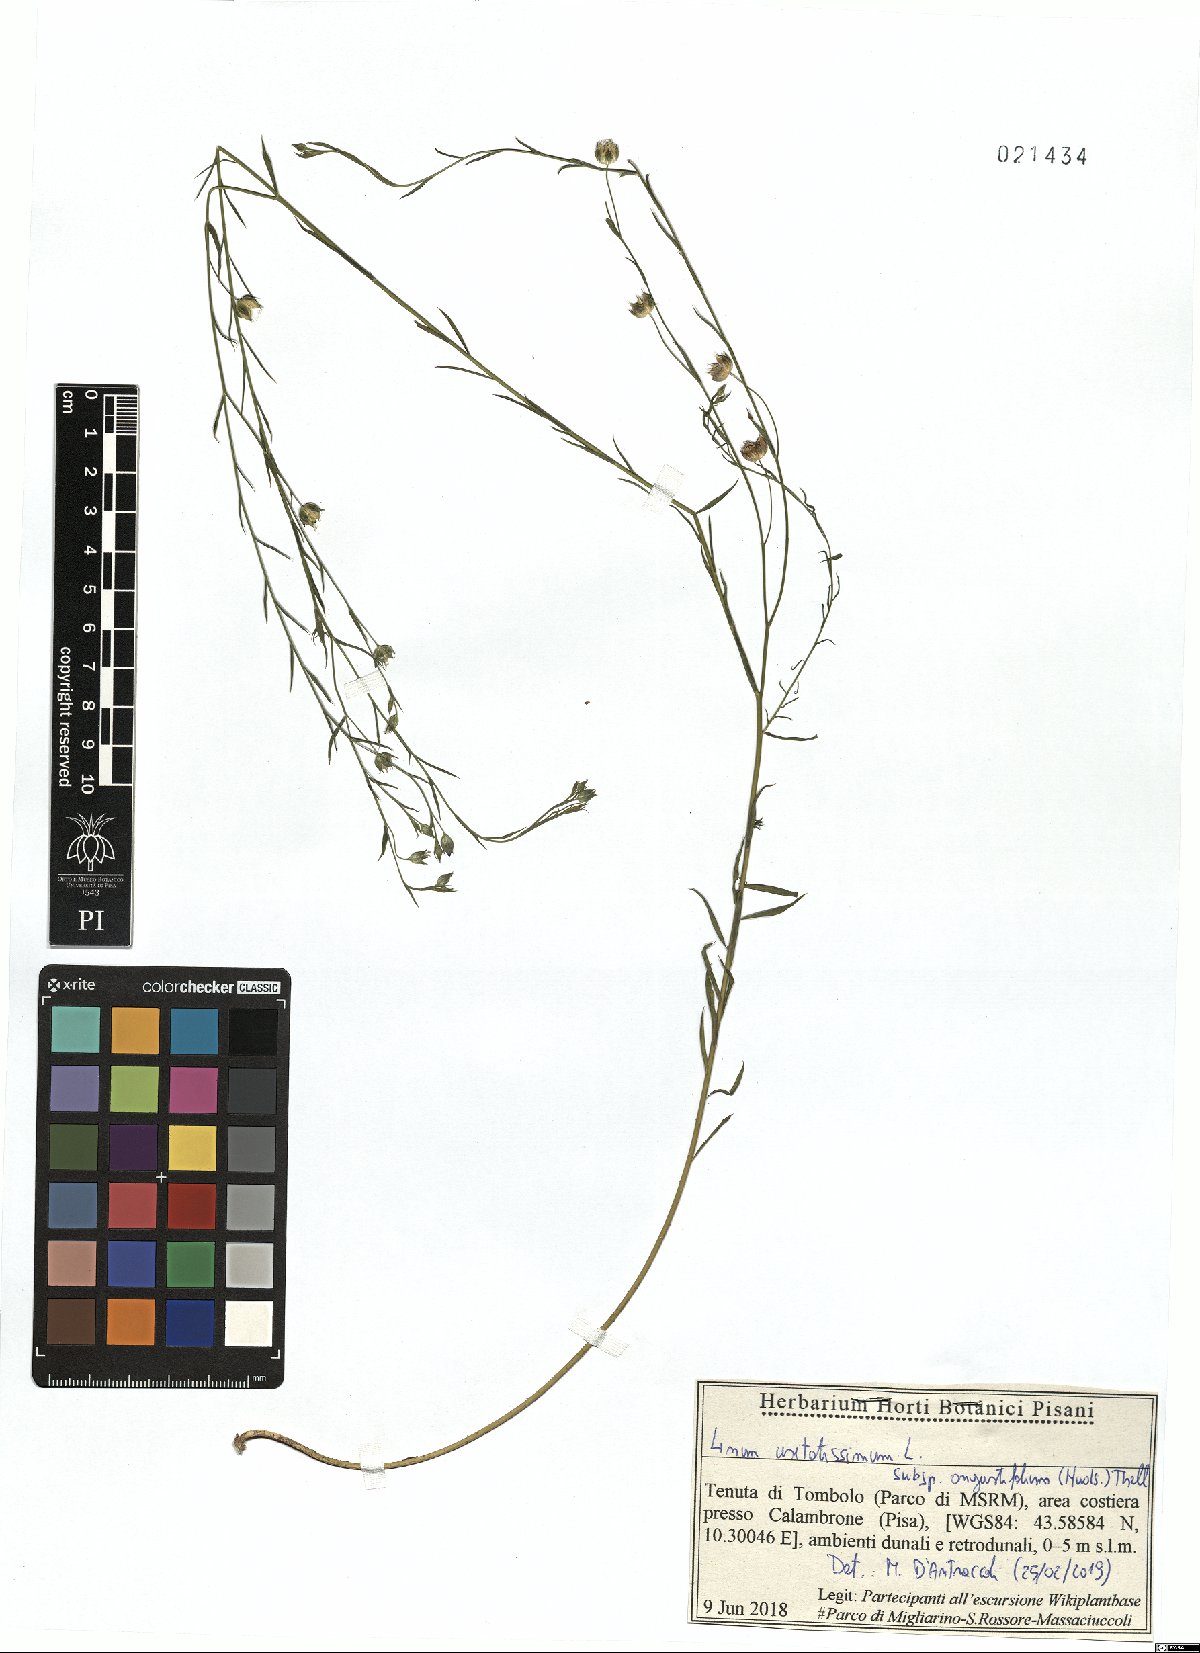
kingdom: Plantae
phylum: Tracheophyta
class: Magnoliopsida
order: Malpighiales
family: Linaceae
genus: Linum
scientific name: Linum bienne
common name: Pale flax
